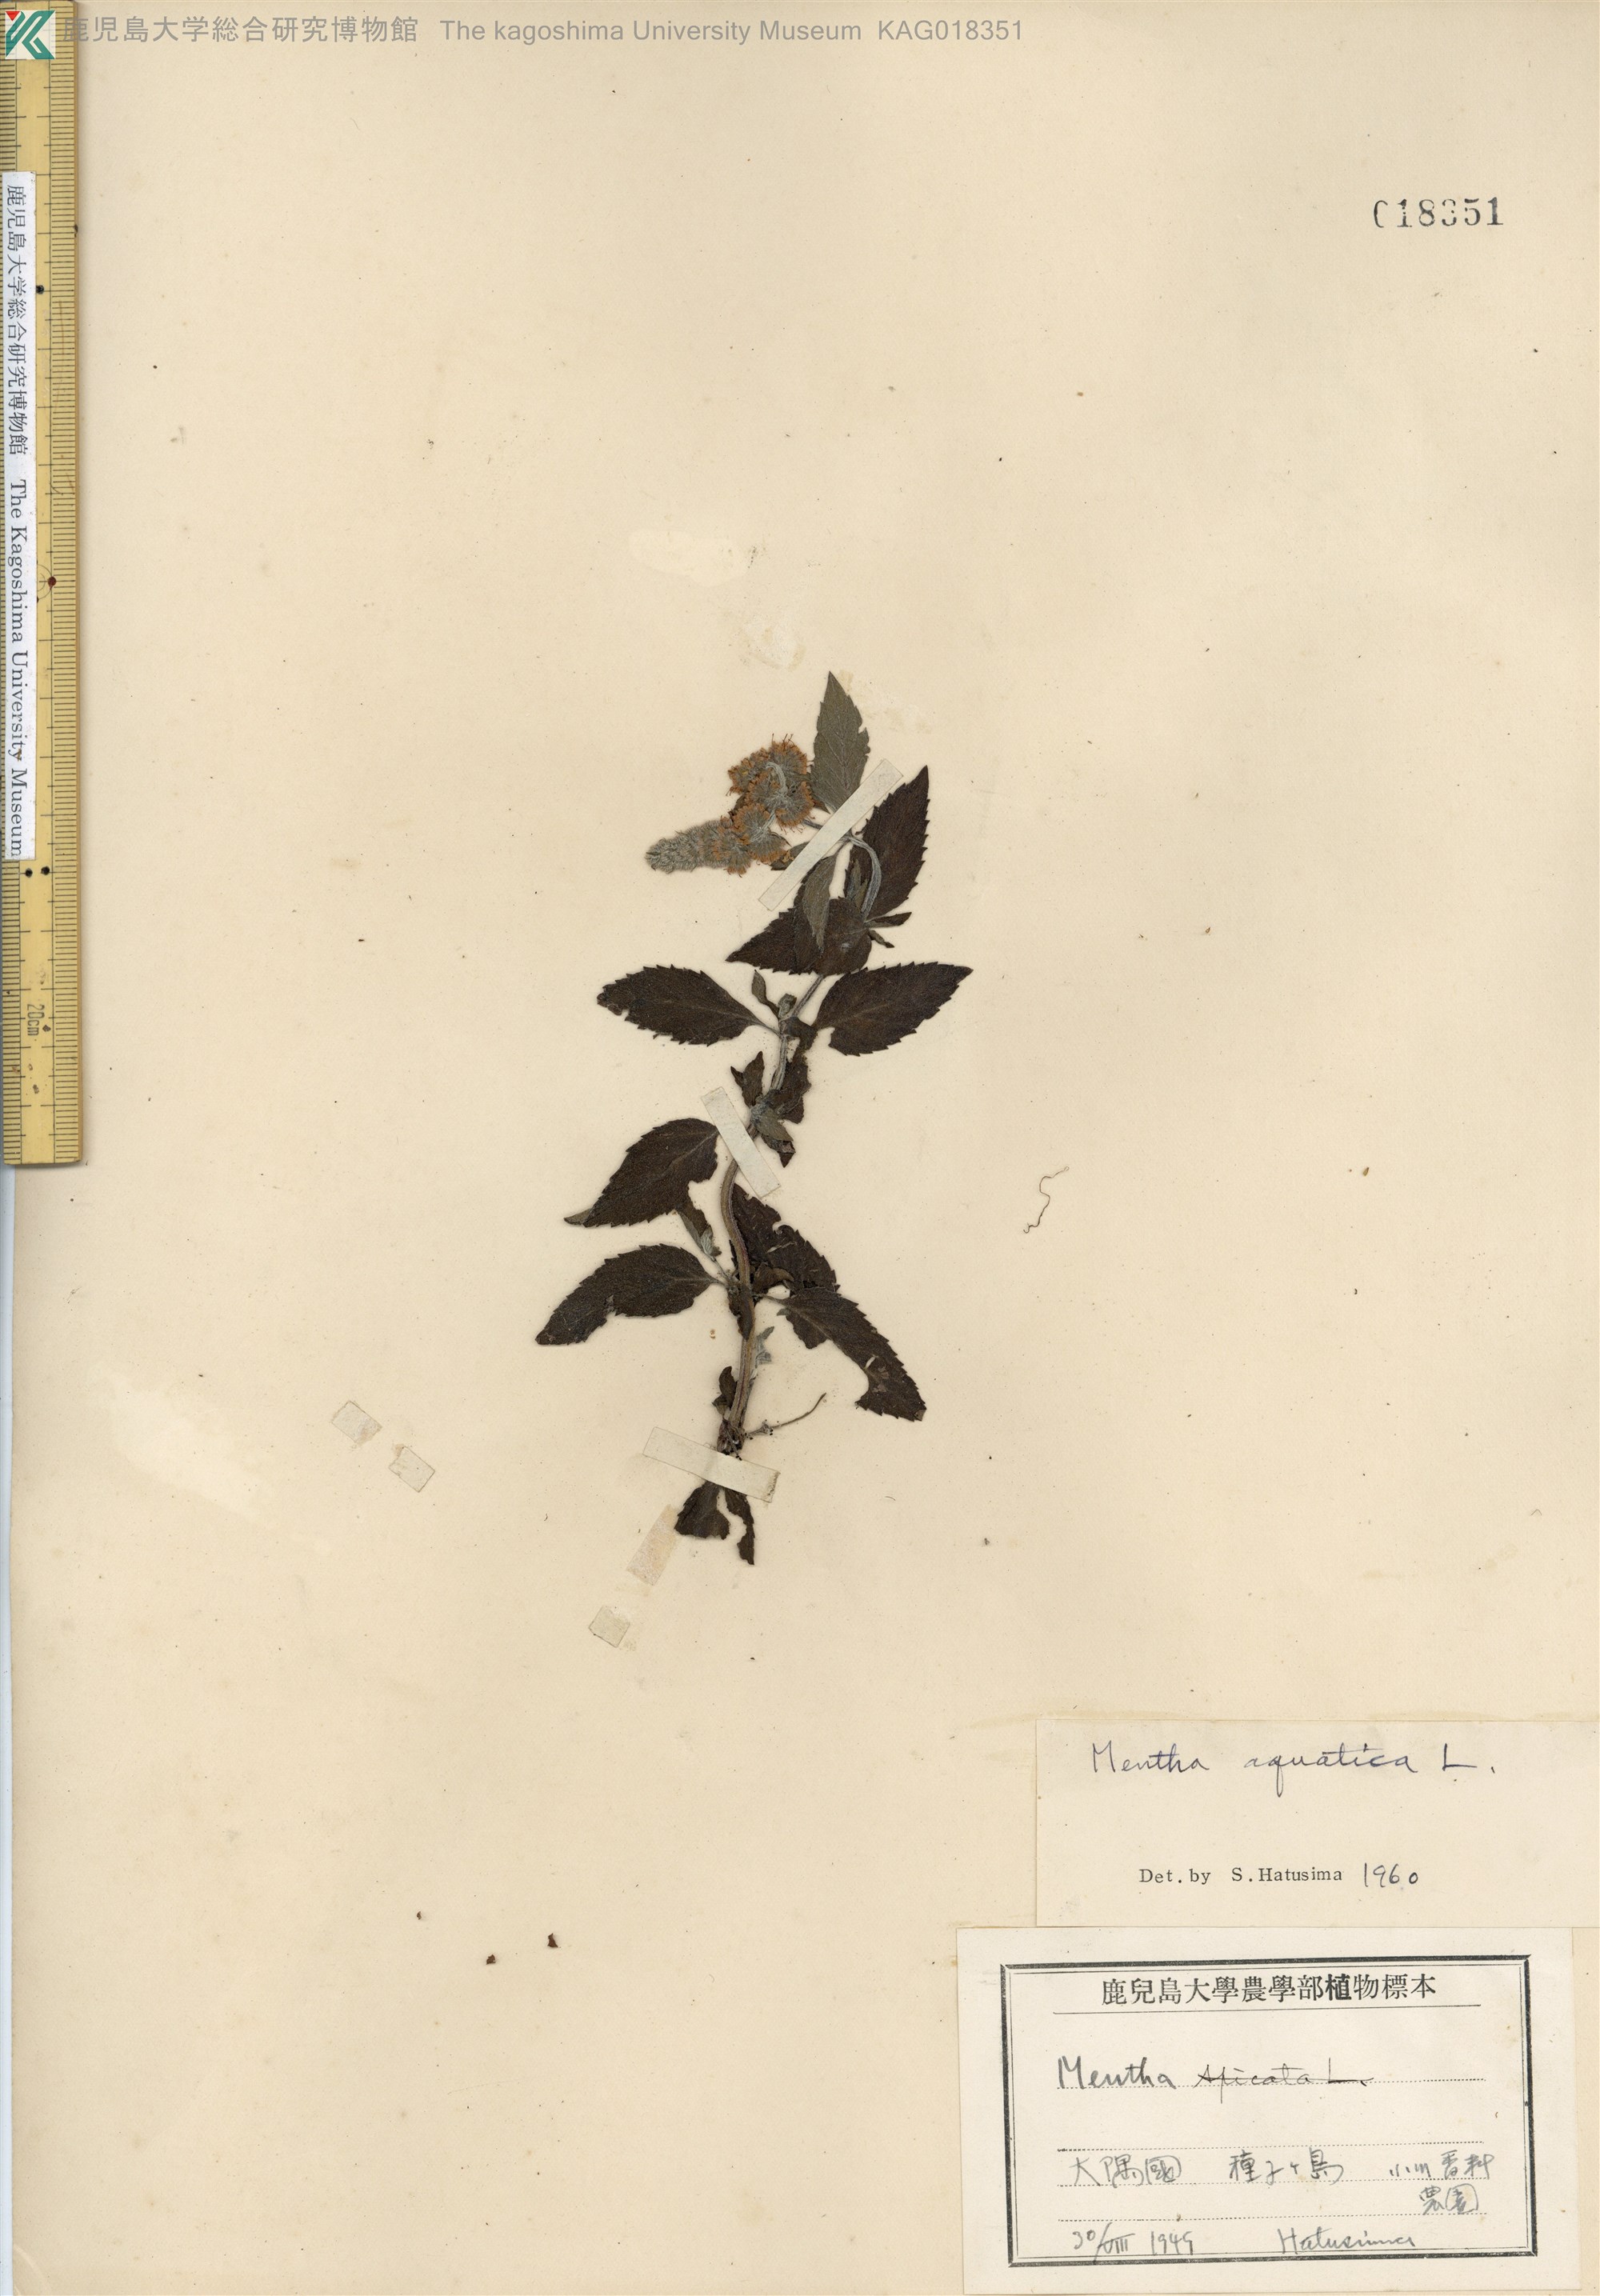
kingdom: Plantae
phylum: Tracheophyta
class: Magnoliopsida
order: Lamiales
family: Lamiaceae
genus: Mentha
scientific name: Mentha aquatica
